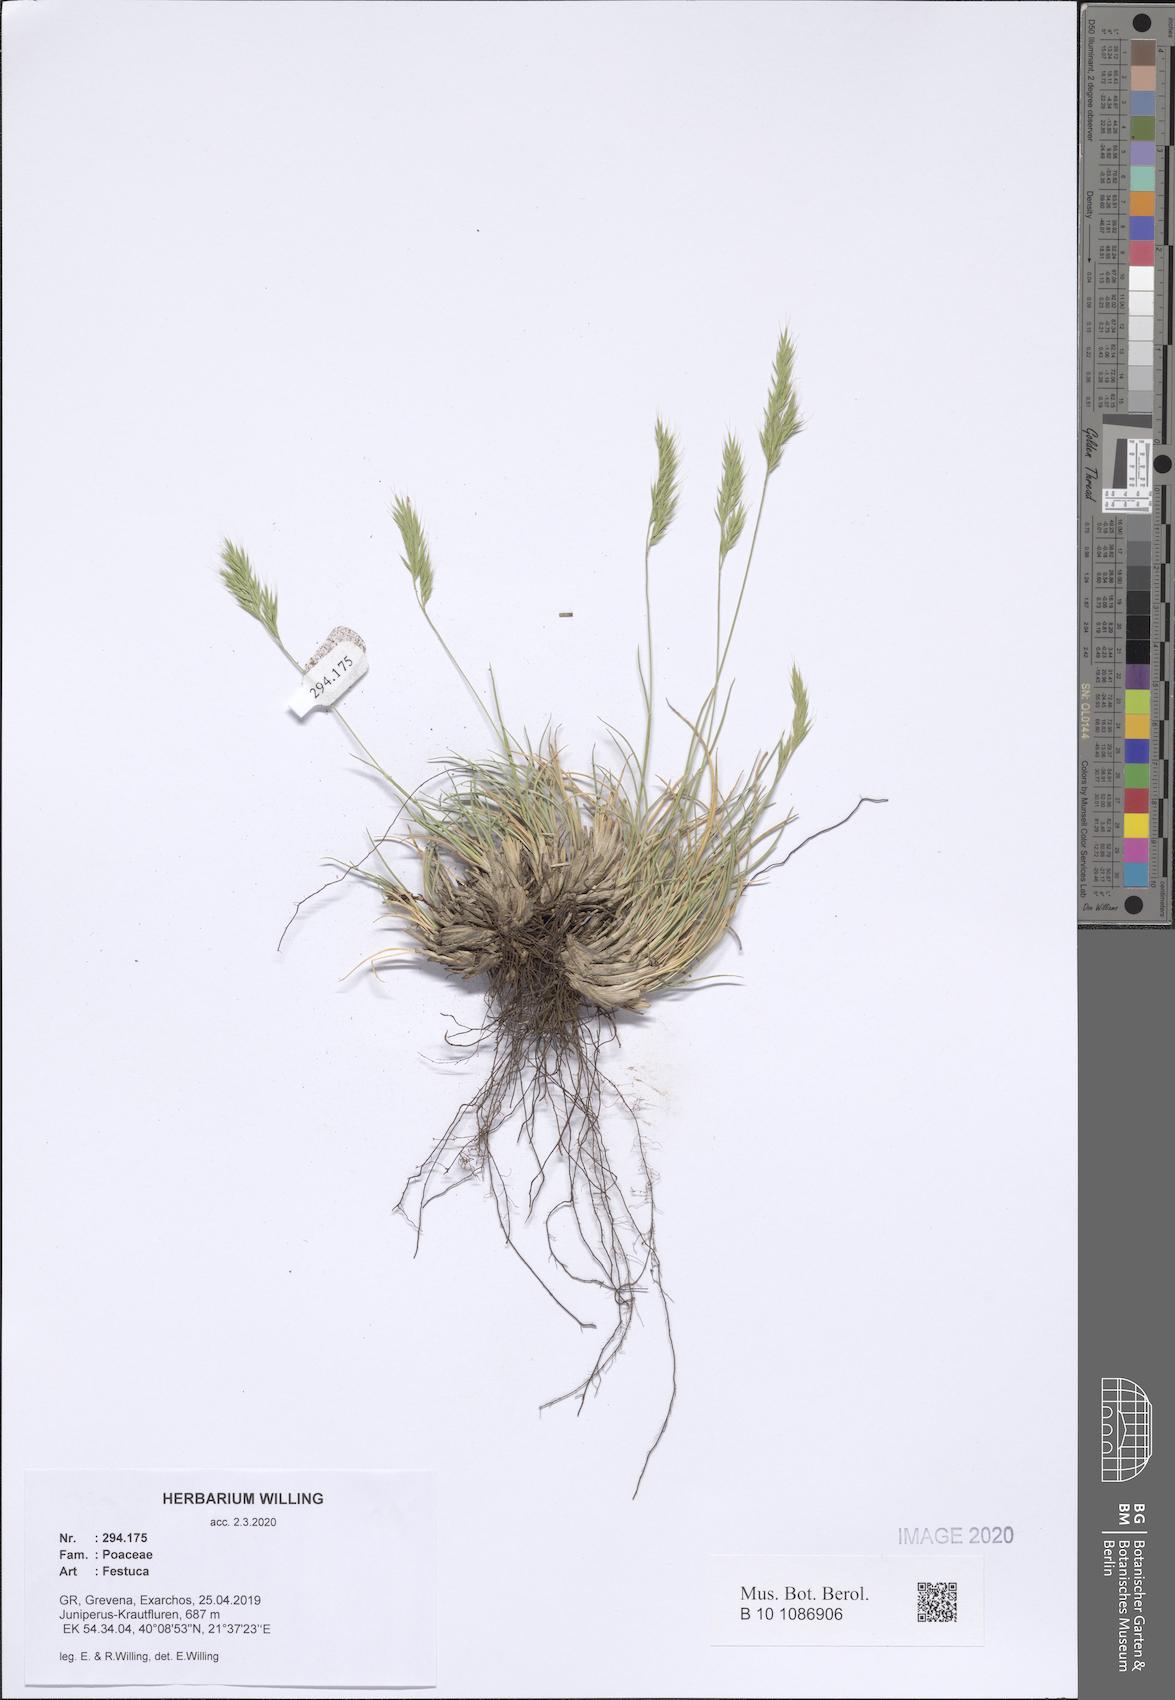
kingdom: Plantae
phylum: Tracheophyta
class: Liliopsida
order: Poales
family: Poaceae
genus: Festuca
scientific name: Festuca
